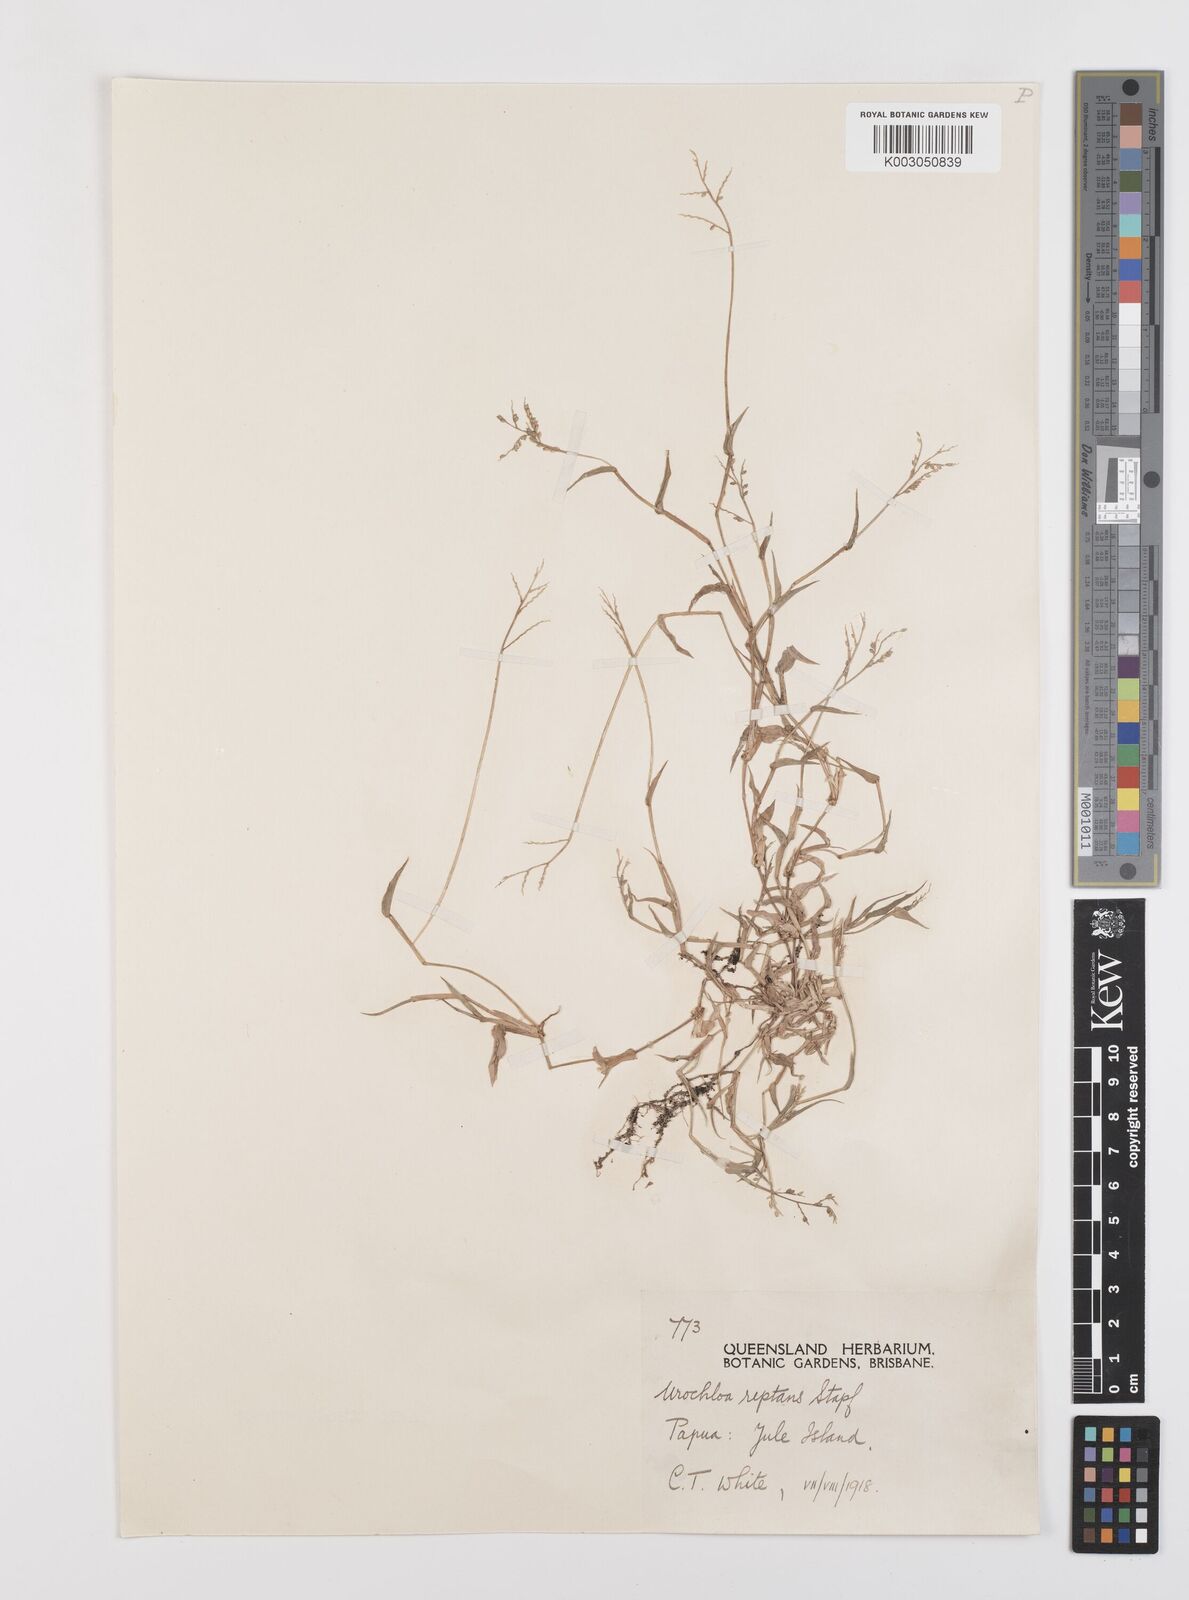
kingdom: Plantae
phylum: Tracheophyta
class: Liliopsida
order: Poales
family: Poaceae
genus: Urochloa
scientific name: Urochloa reptans
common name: Sprawling signalgrass
